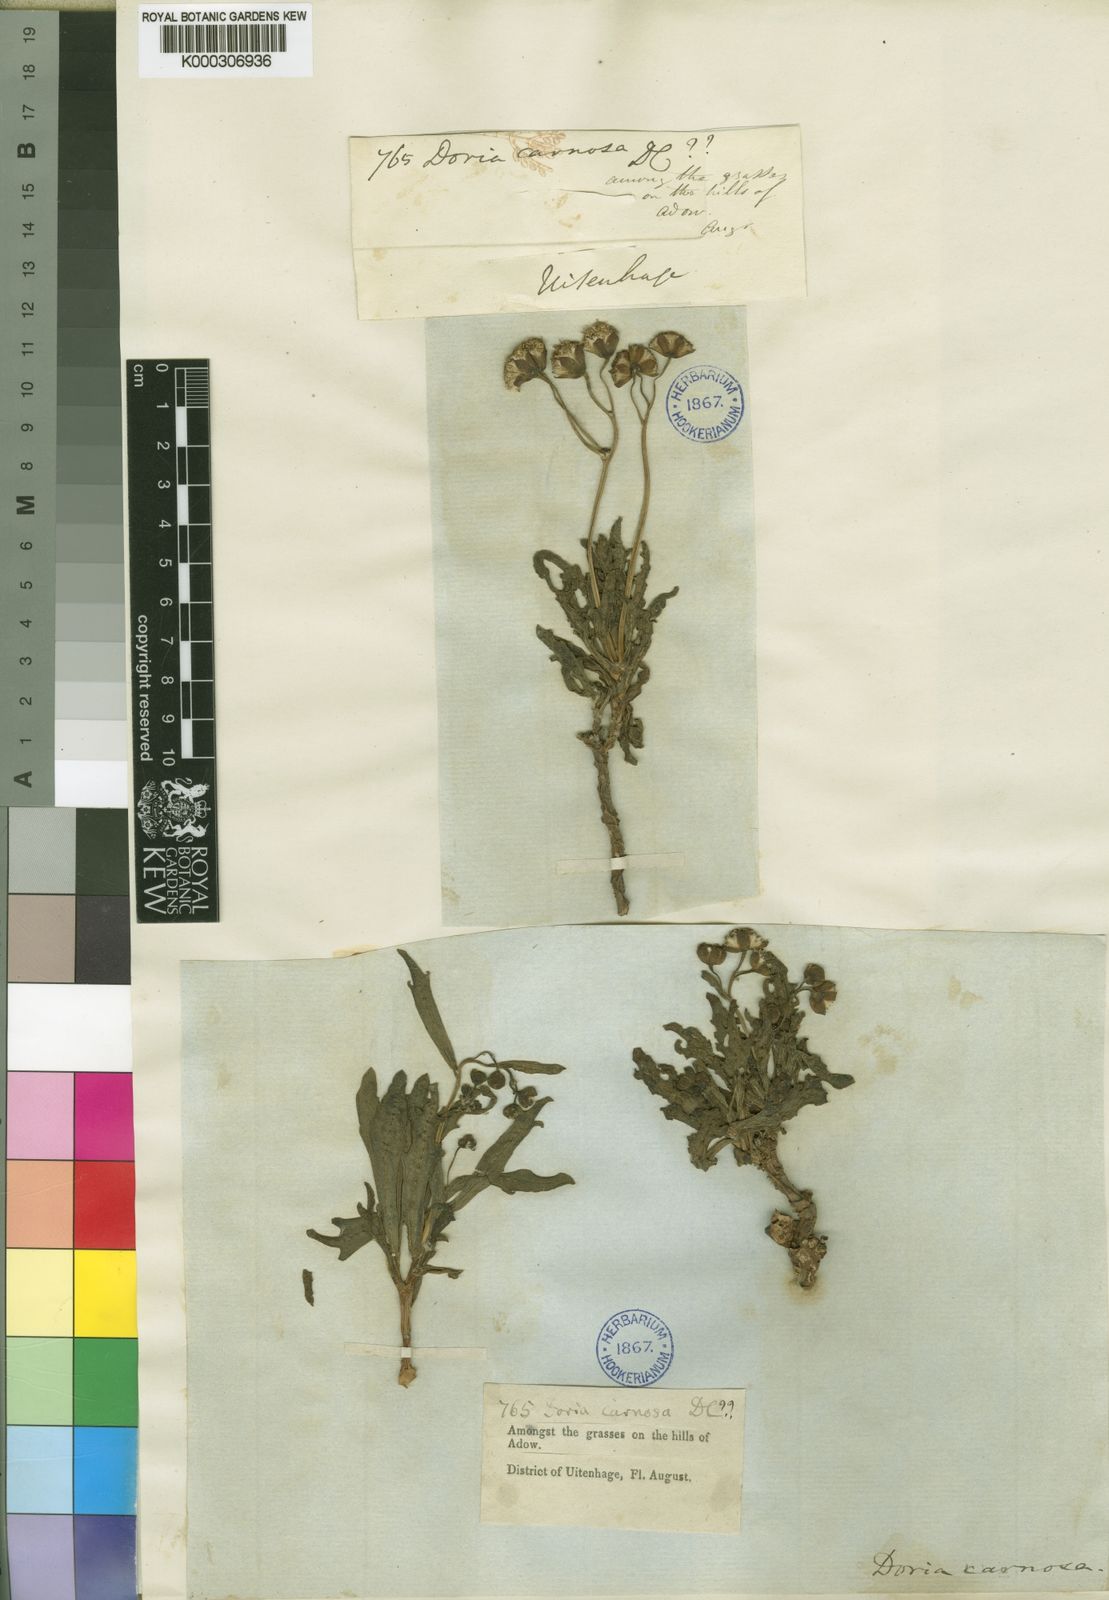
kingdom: Plantae
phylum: Tracheophyta
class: Magnoliopsida
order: Asterales
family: Asteraceae
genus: Crassothonna
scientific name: Crassothonna cacalioides
